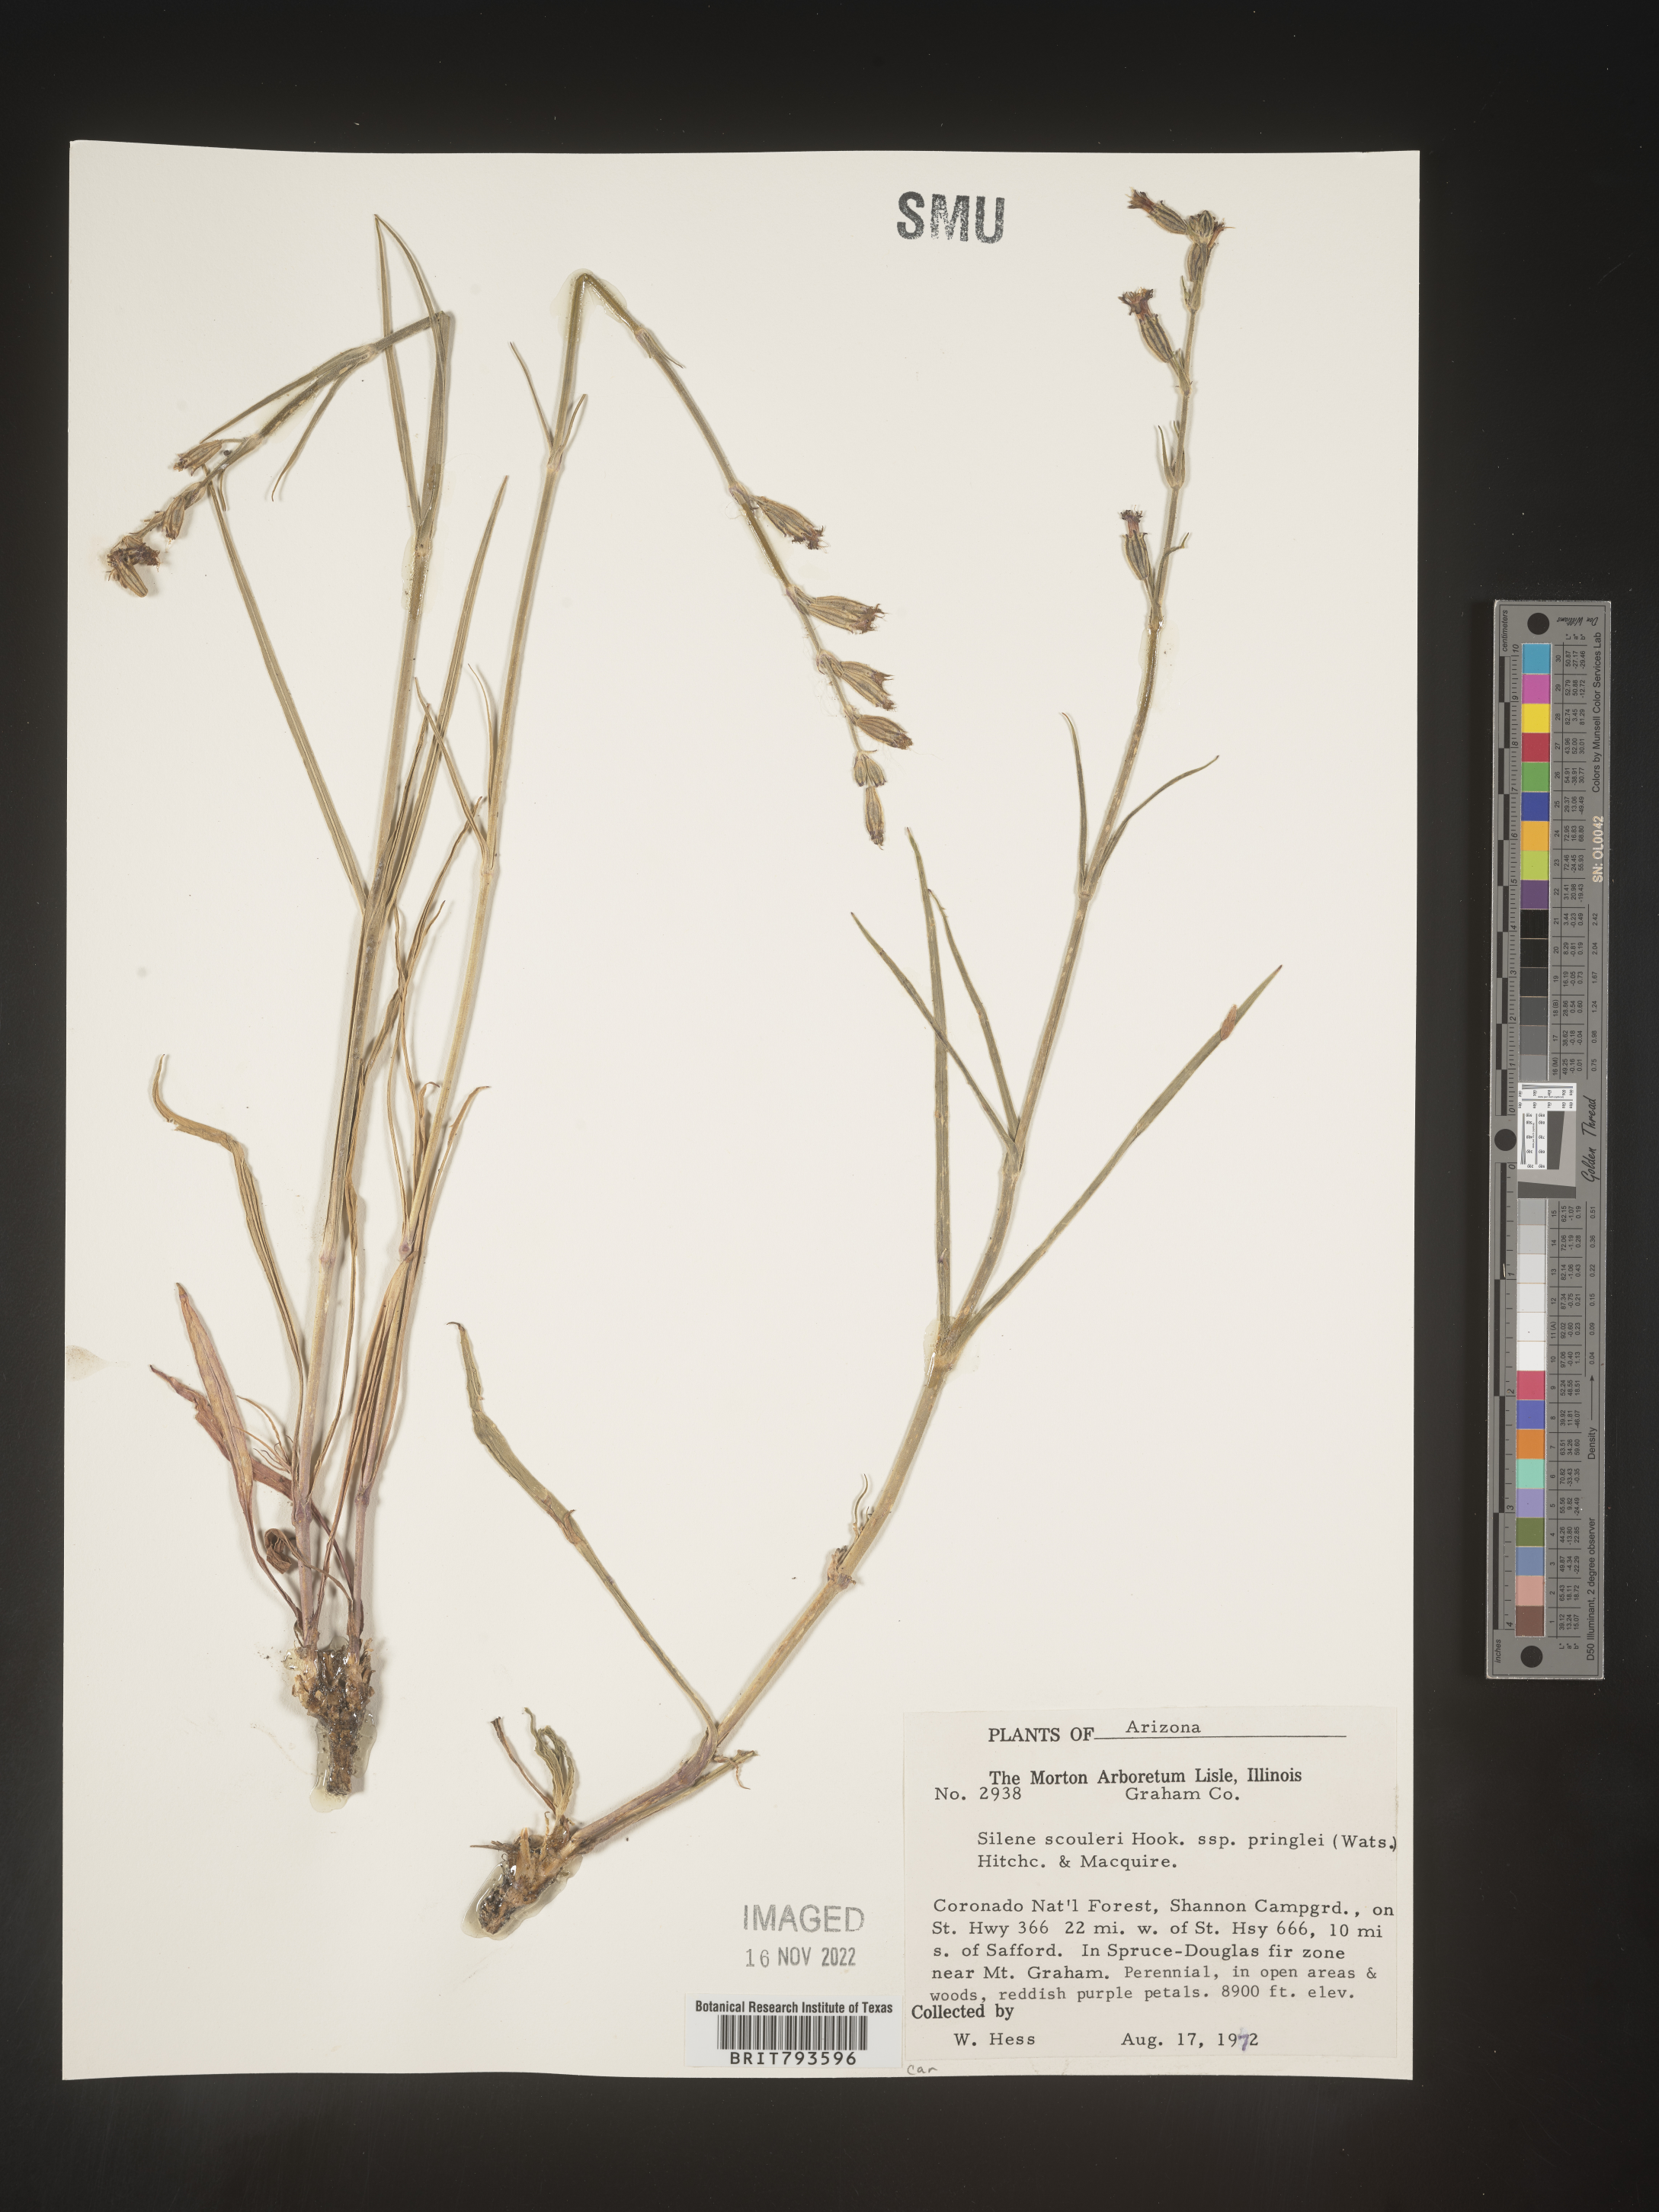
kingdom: Plantae
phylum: Tracheophyta
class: Magnoliopsida
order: Caryophyllales
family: Caryophyllaceae
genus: Silene
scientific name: Silene scouleri
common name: Scouler's campion
